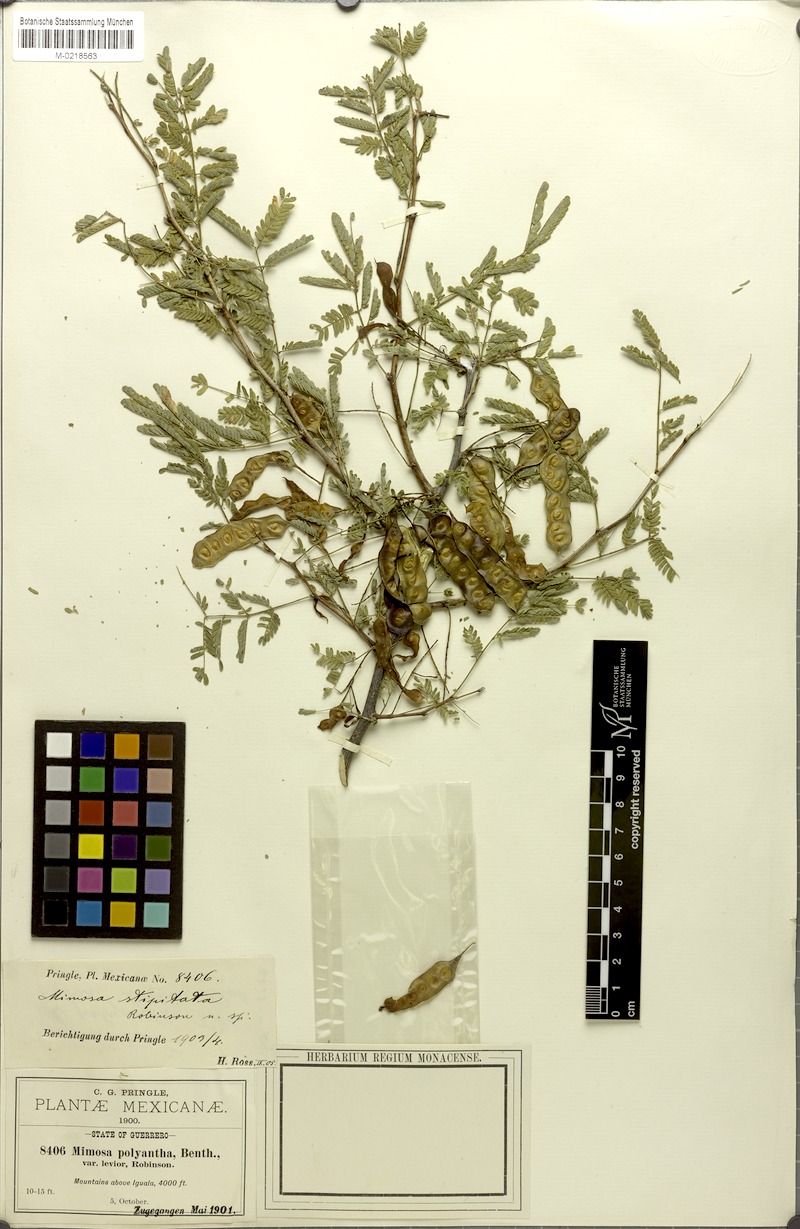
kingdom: Plantae
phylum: Tracheophyta
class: Magnoliopsida
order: Fabales
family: Fabaceae
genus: Mimosa
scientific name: Mimosa polyantha
